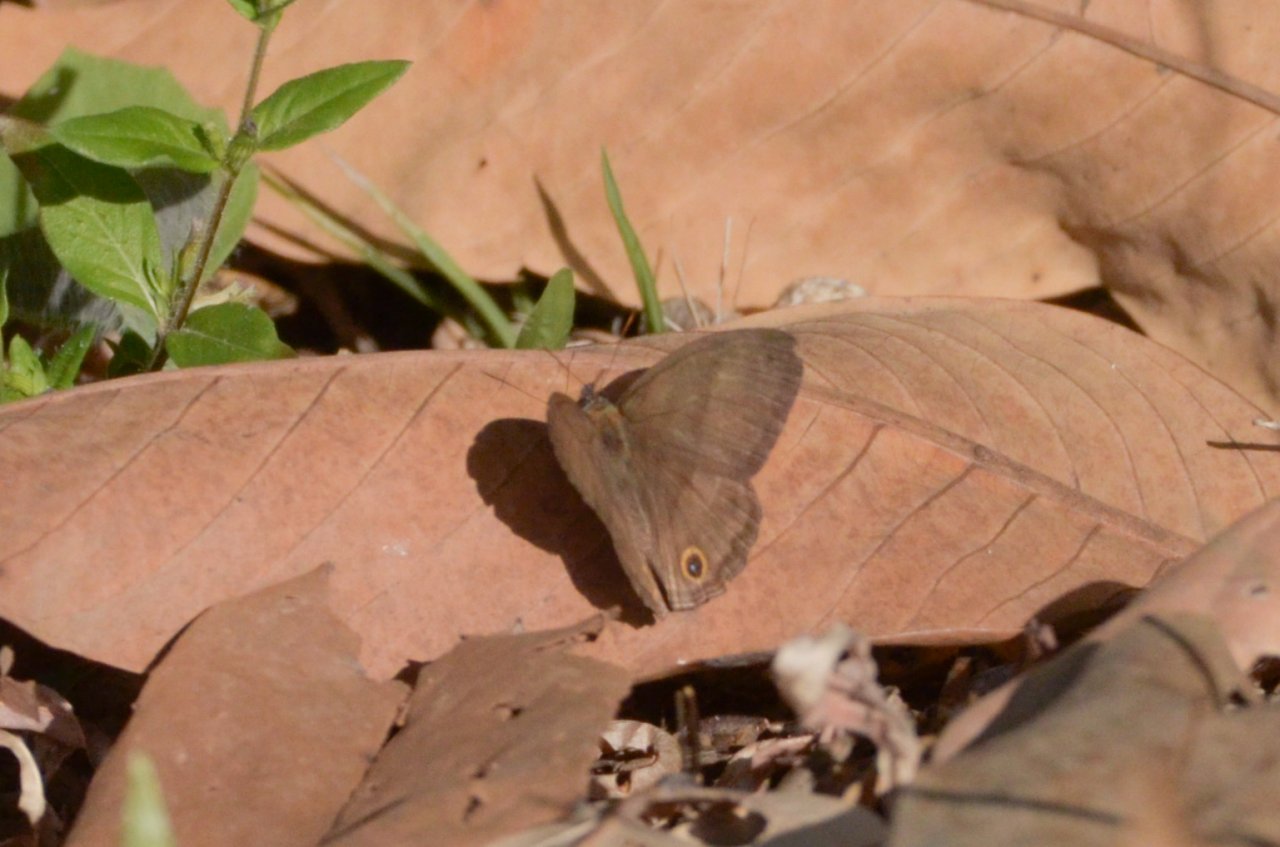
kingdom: Animalia
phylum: Arthropoda
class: Insecta
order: Lepidoptera
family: Nymphalidae
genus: Euptychia
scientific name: Euptychia Cissia pompilia
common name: Plain Satyr
